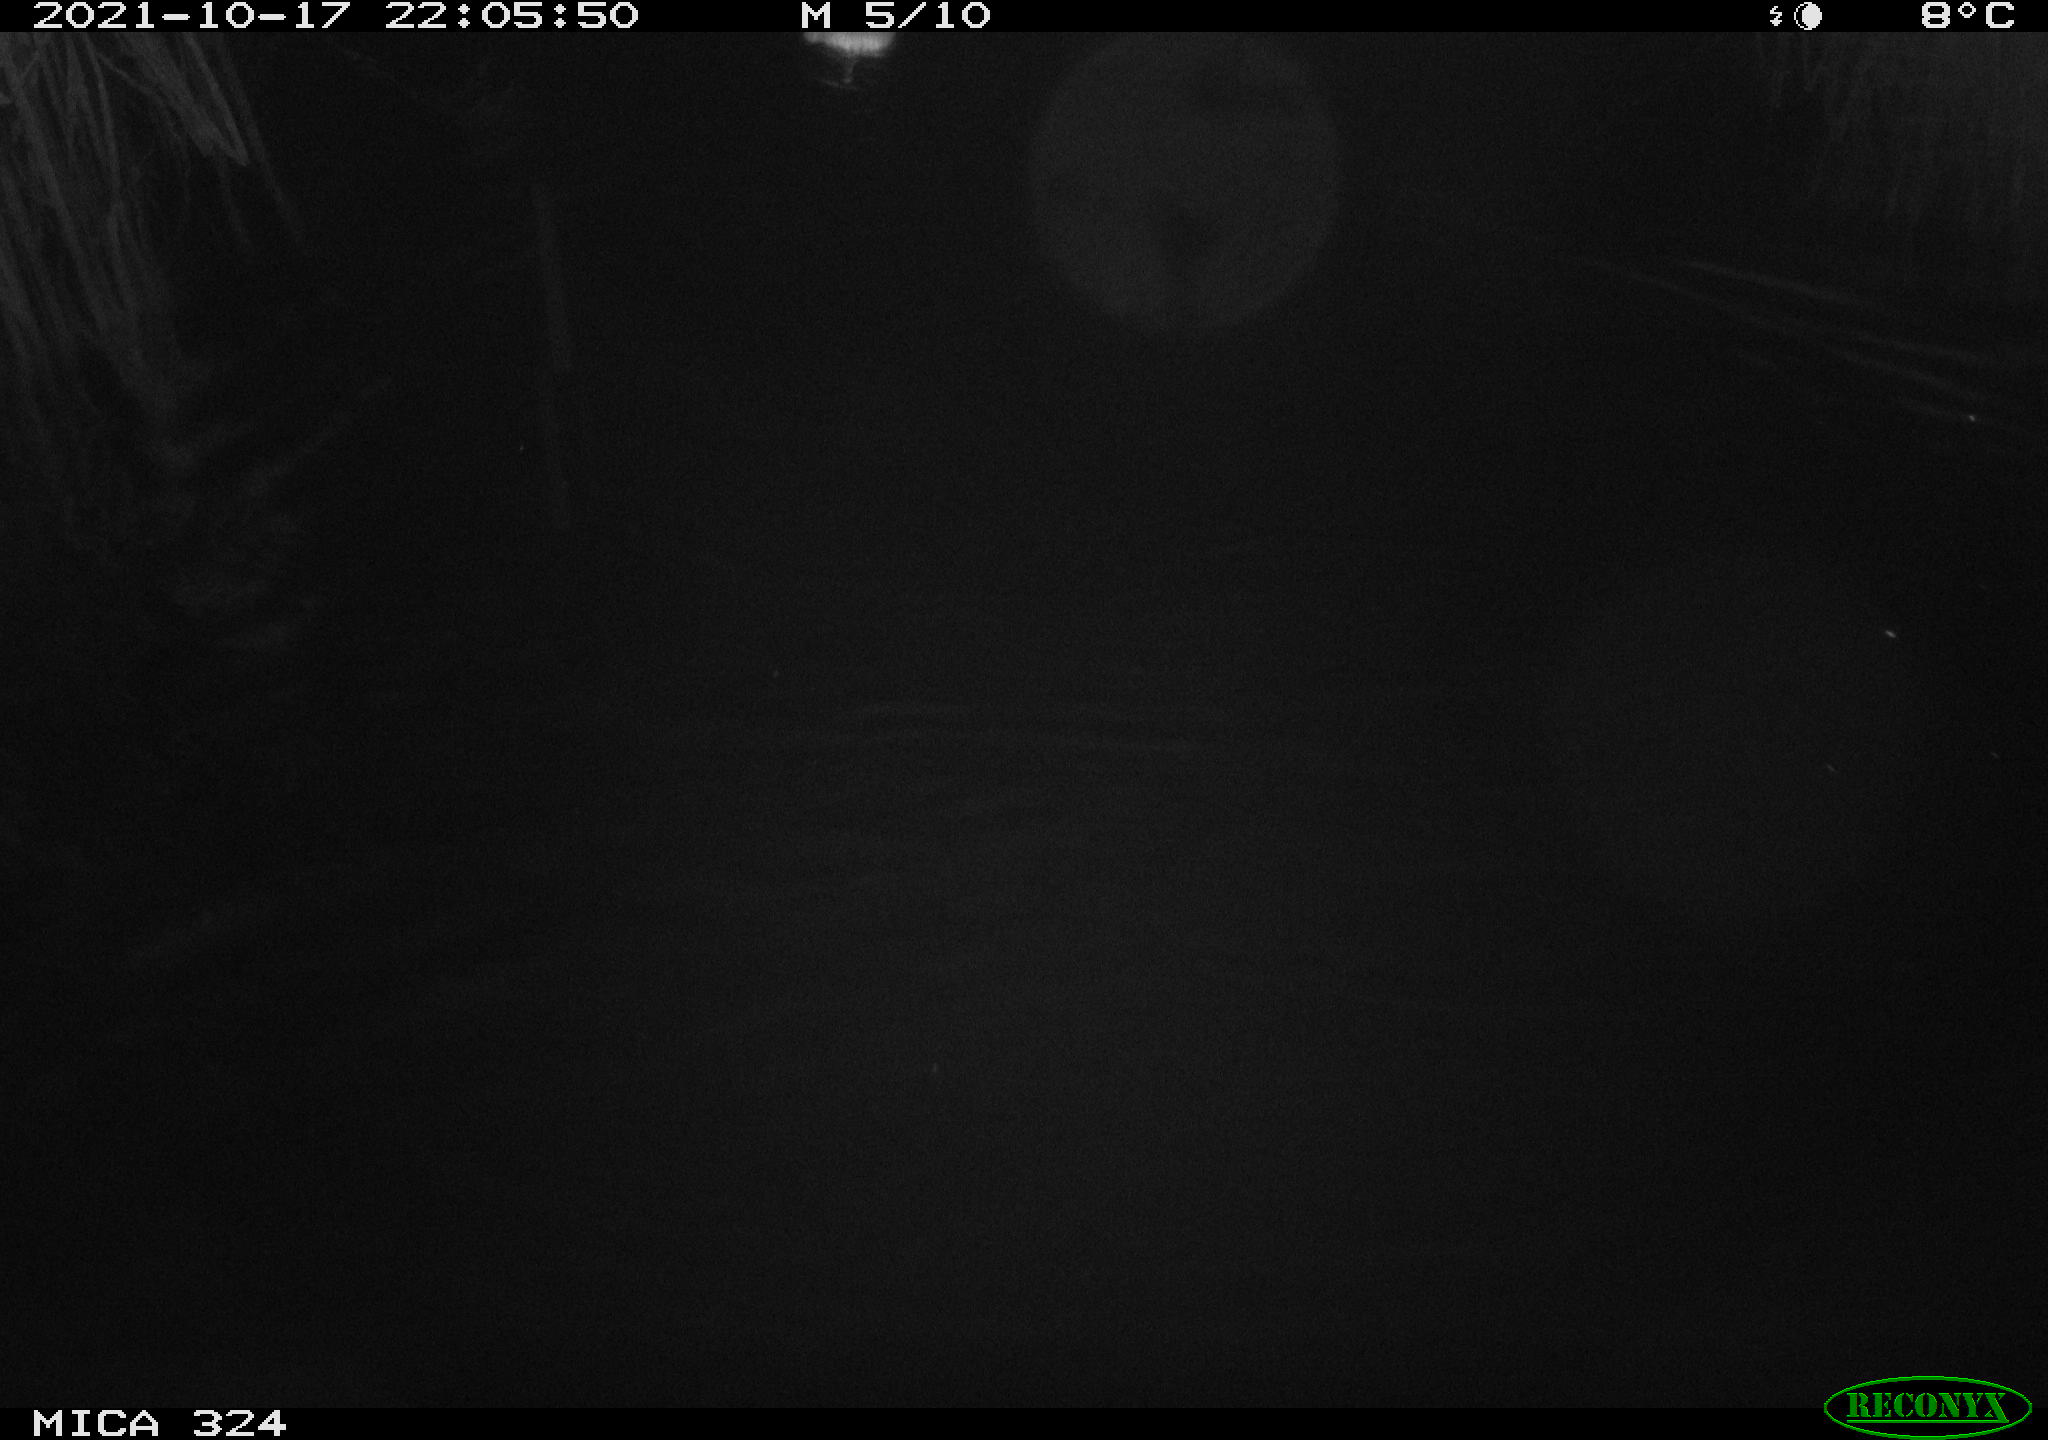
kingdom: Animalia
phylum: Chordata
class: Mammalia
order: Rodentia
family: Cricetidae
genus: Ondatra
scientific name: Ondatra zibethicus
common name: Muskrat
